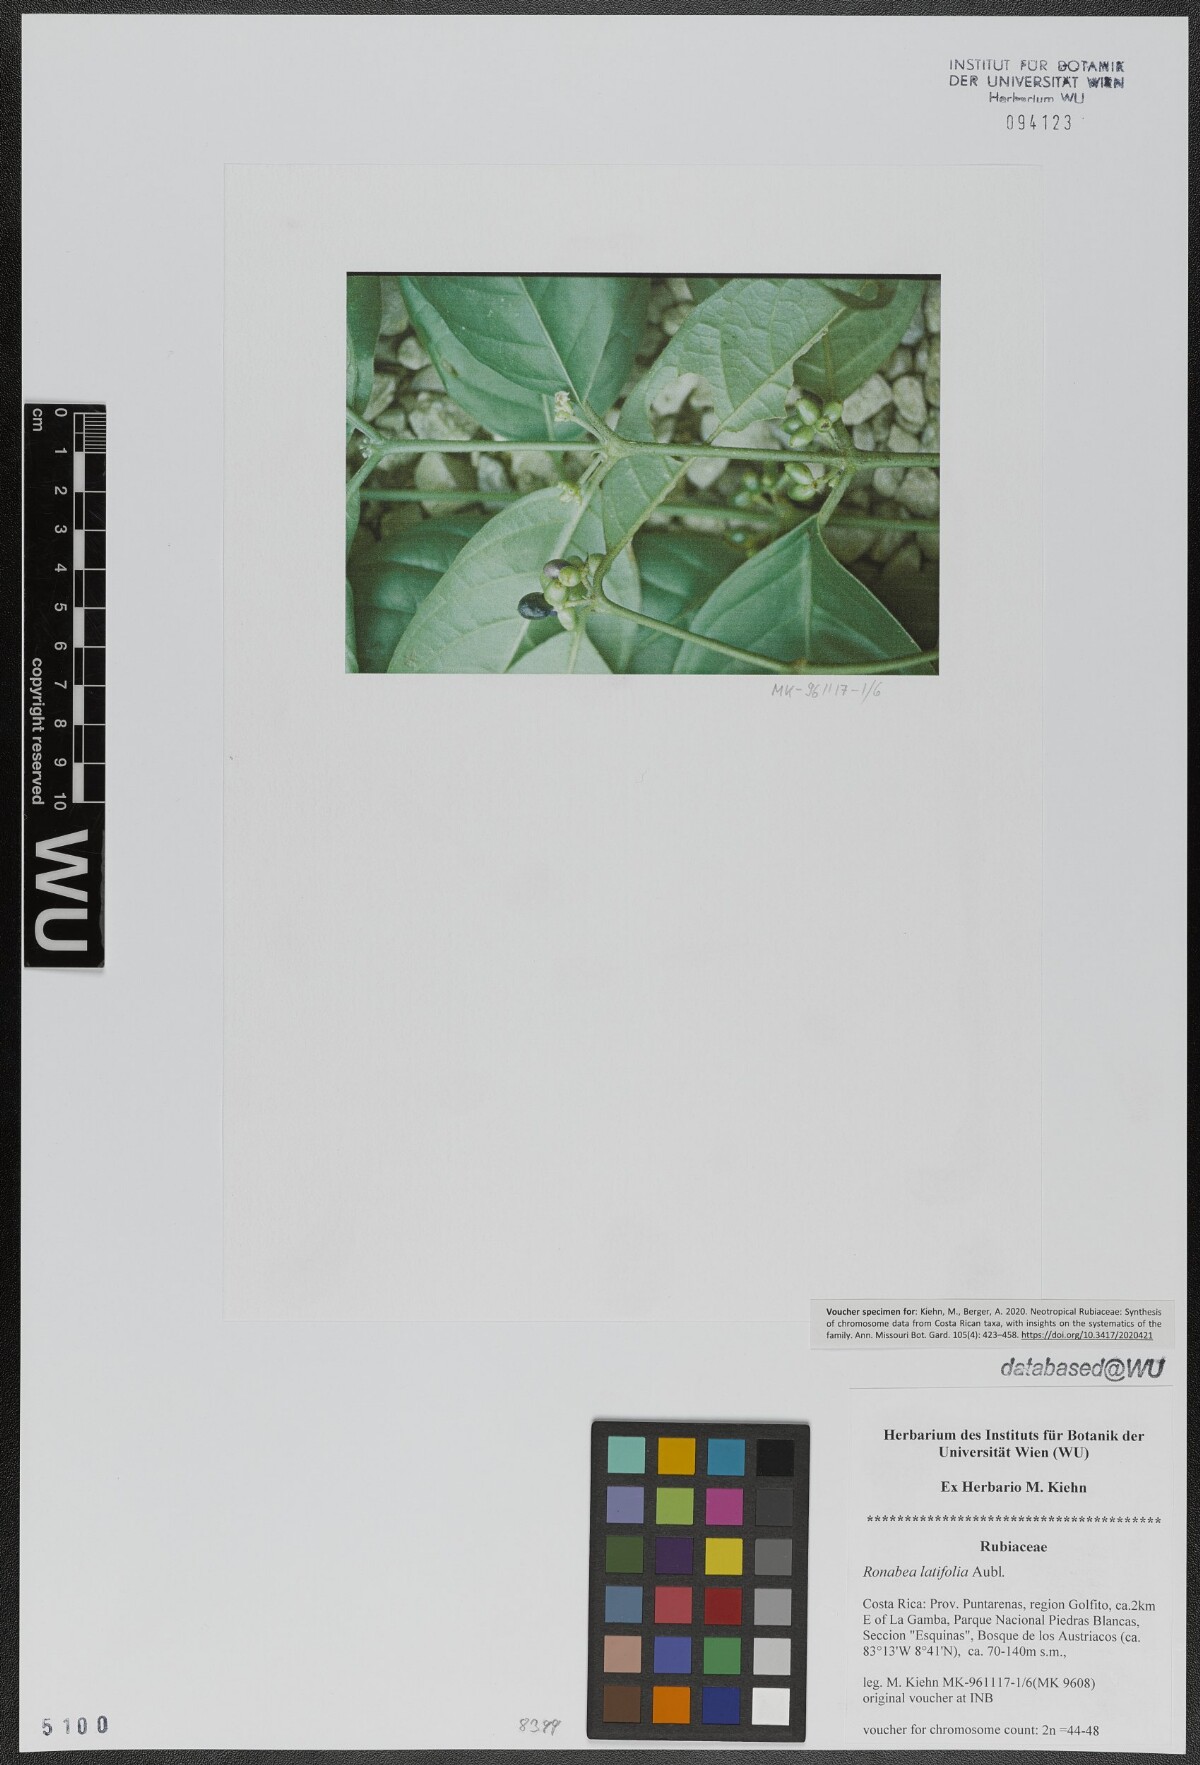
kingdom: Plantae
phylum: Tracheophyta
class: Magnoliopsida
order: Gentianales
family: Rubiaceae
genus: Ronabea
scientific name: Ronabea latifolia
